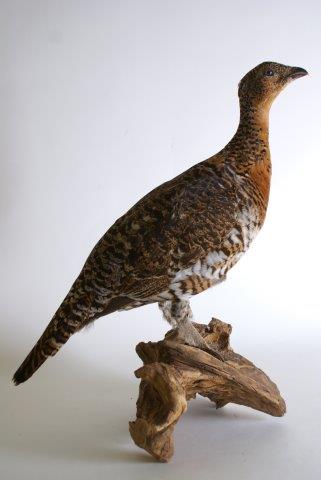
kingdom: Animalia
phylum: Chordata
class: Aves
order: Galliformes
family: Phasianidae
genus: Tetrao
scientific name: Tetrao urogallus
